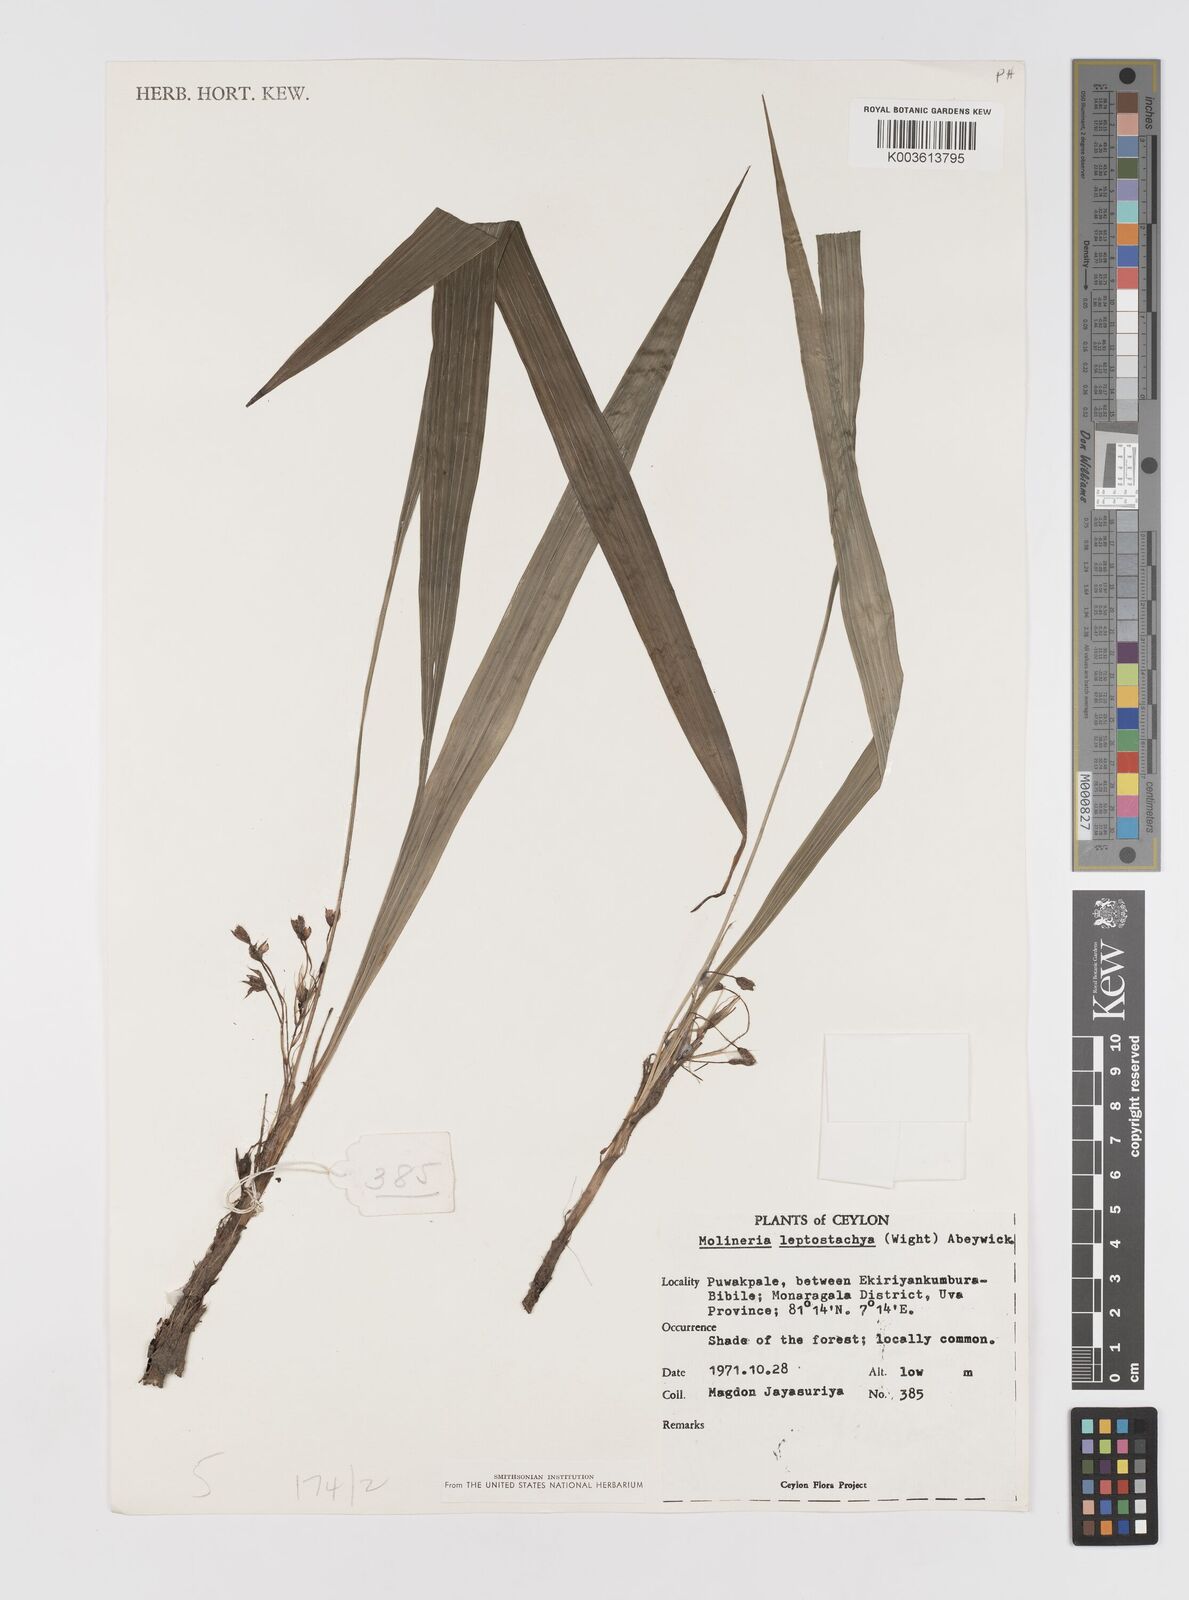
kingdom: Plantae
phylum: Tracheophyta
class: Liliopsida
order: Asparagales
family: Hypoxidaceae
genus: Curculigo
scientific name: Curculigo trichocarpa
